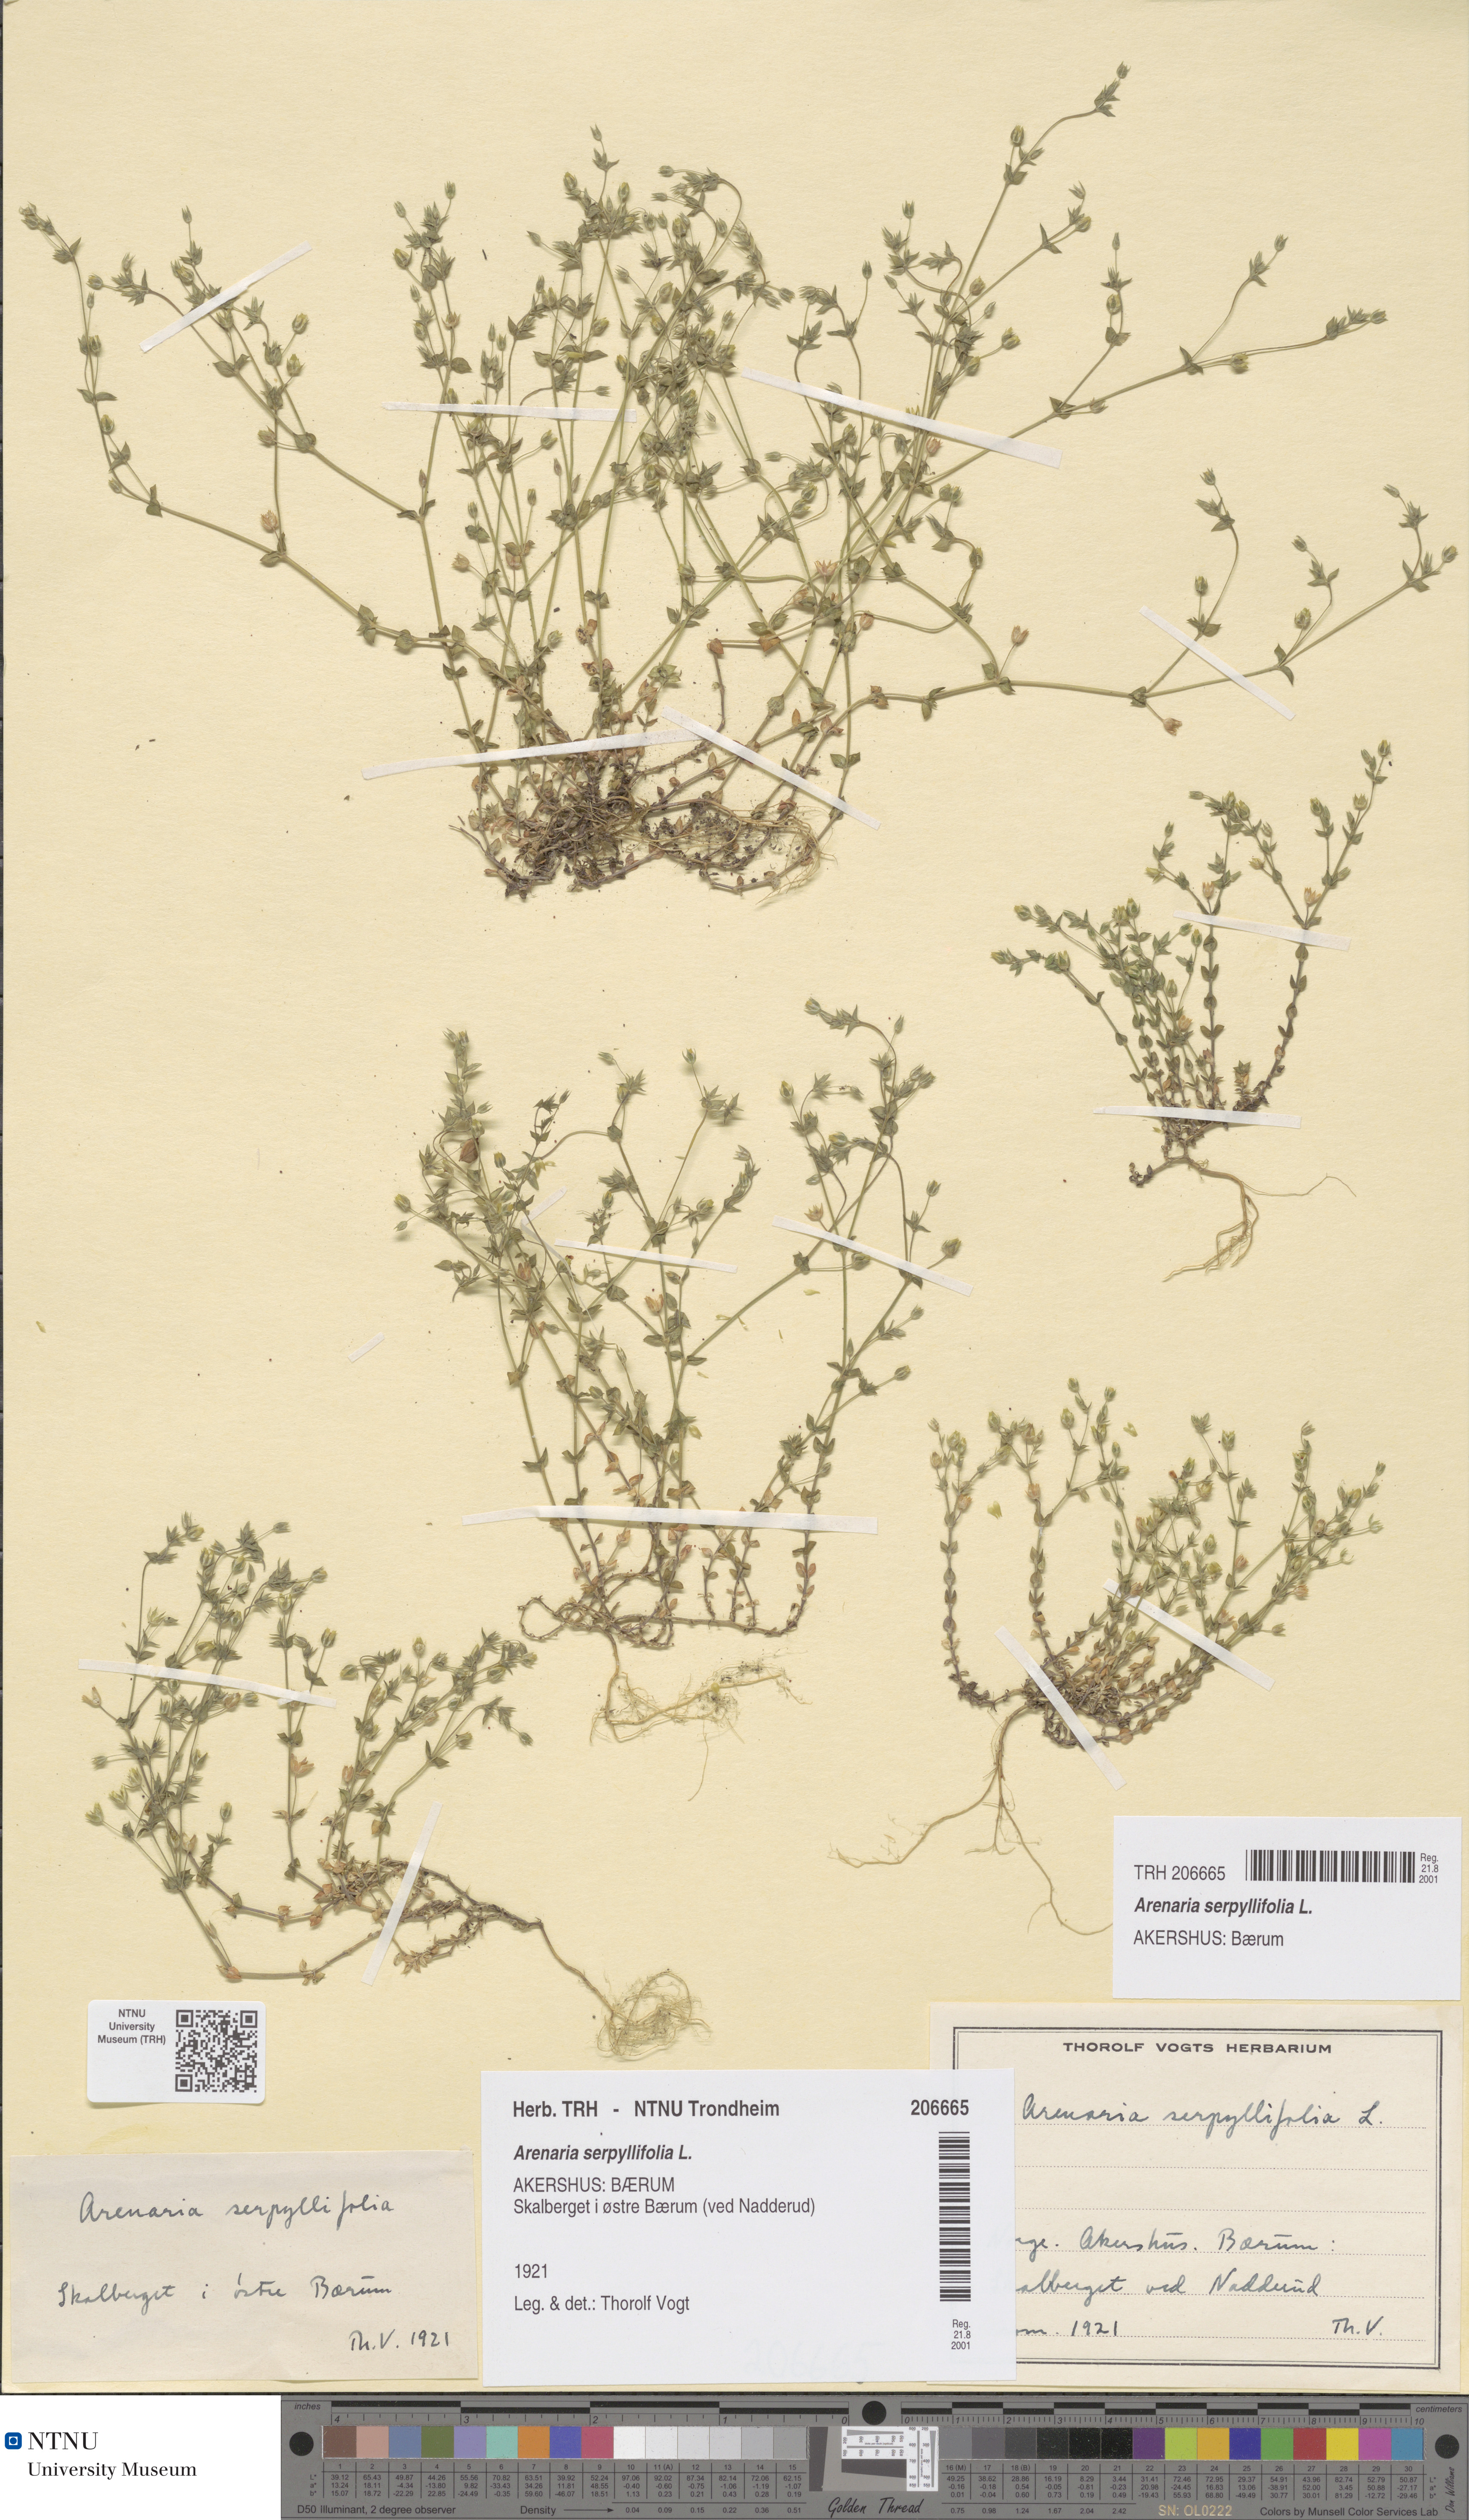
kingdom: Plantae
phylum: Tracheophyta
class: Magnoliopsida
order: Caryophyllales
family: Caryophyllaceae
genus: Arenaria
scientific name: Arenaria serpyllifolia
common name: Thyme-leaved sandwort
